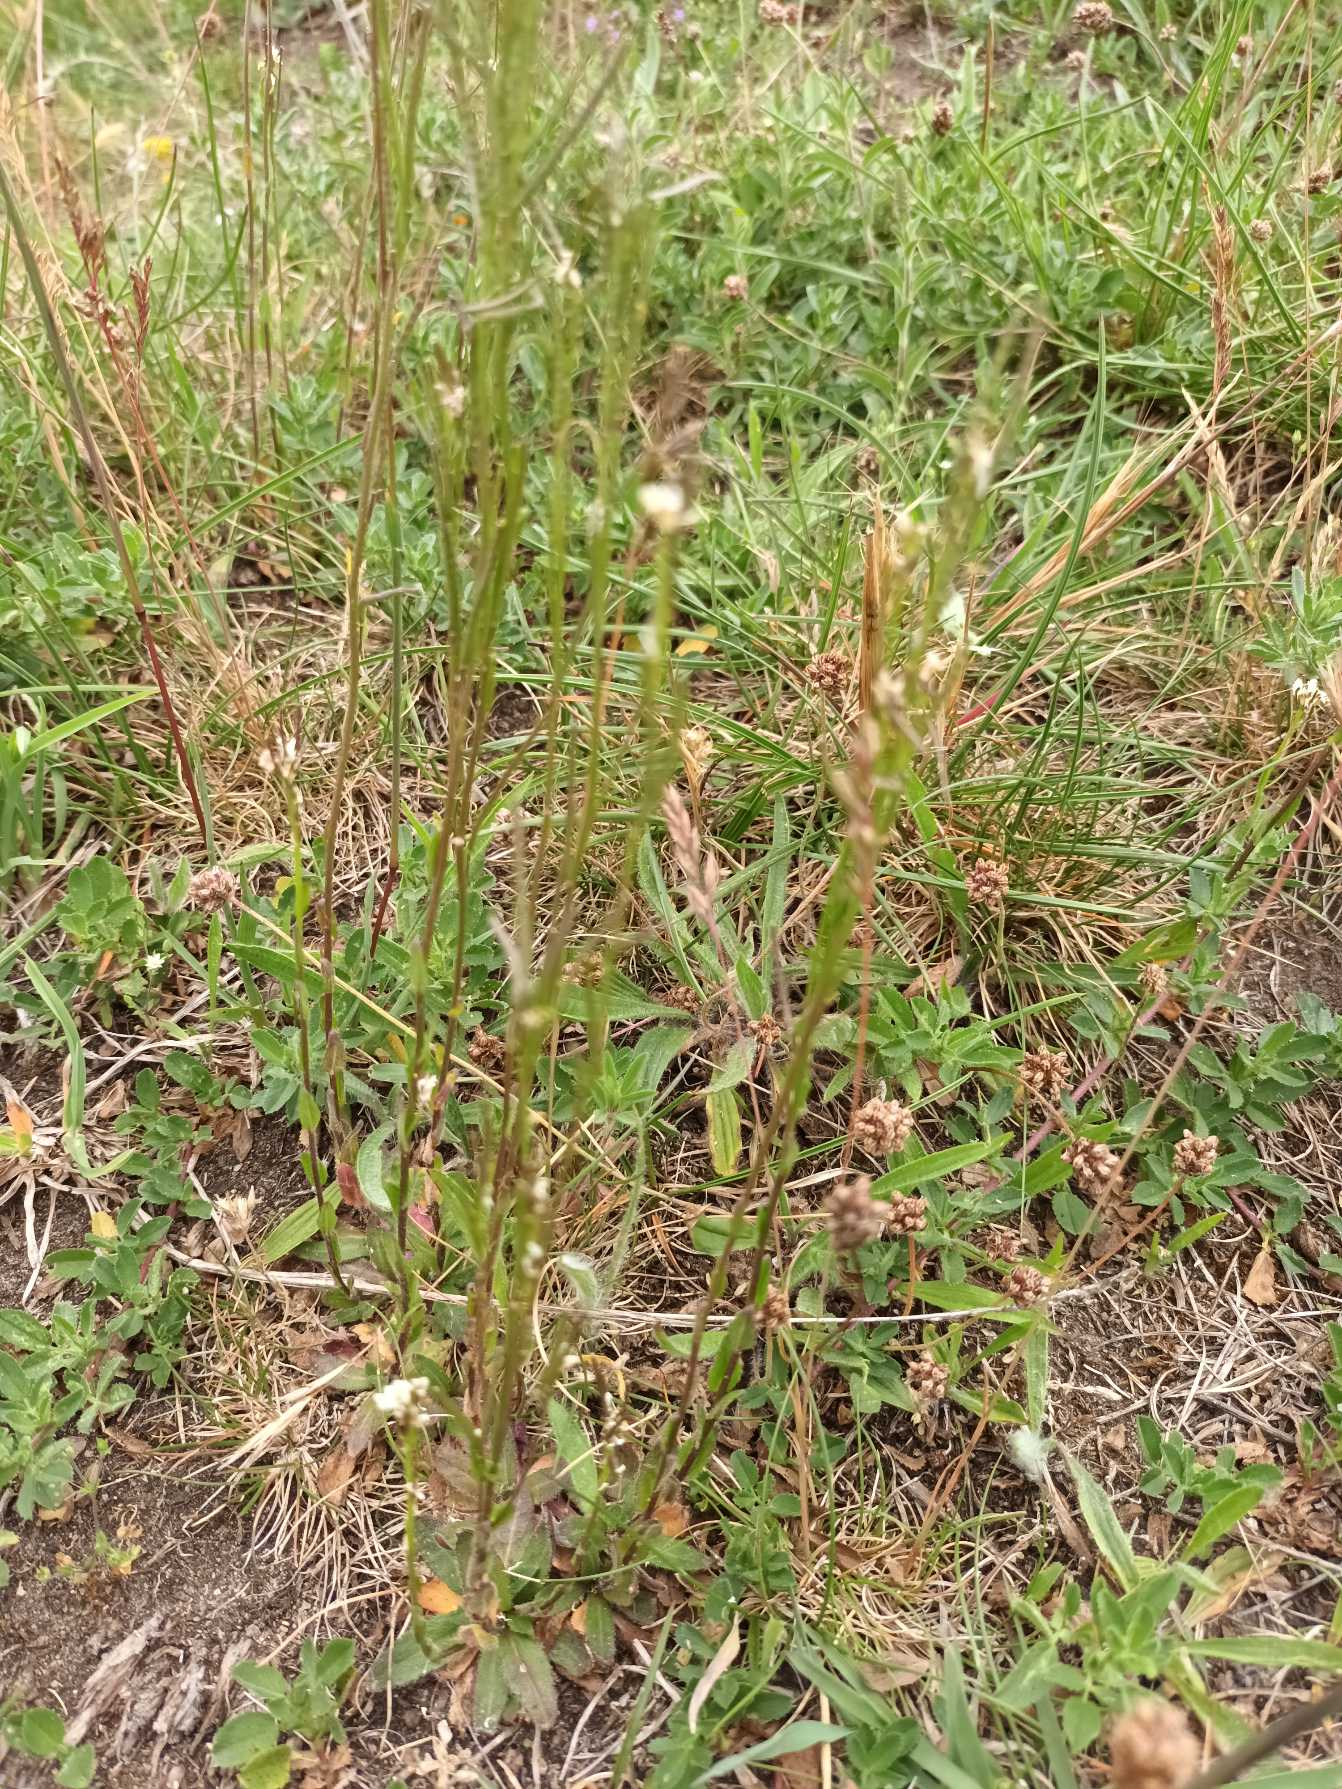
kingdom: Plantae
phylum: Tracheophyta
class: Magnoliopsida
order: Brassicales
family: Brassicaceae
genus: Arabis
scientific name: Arabis hirsuta
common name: Stivhåret kalkkarse
